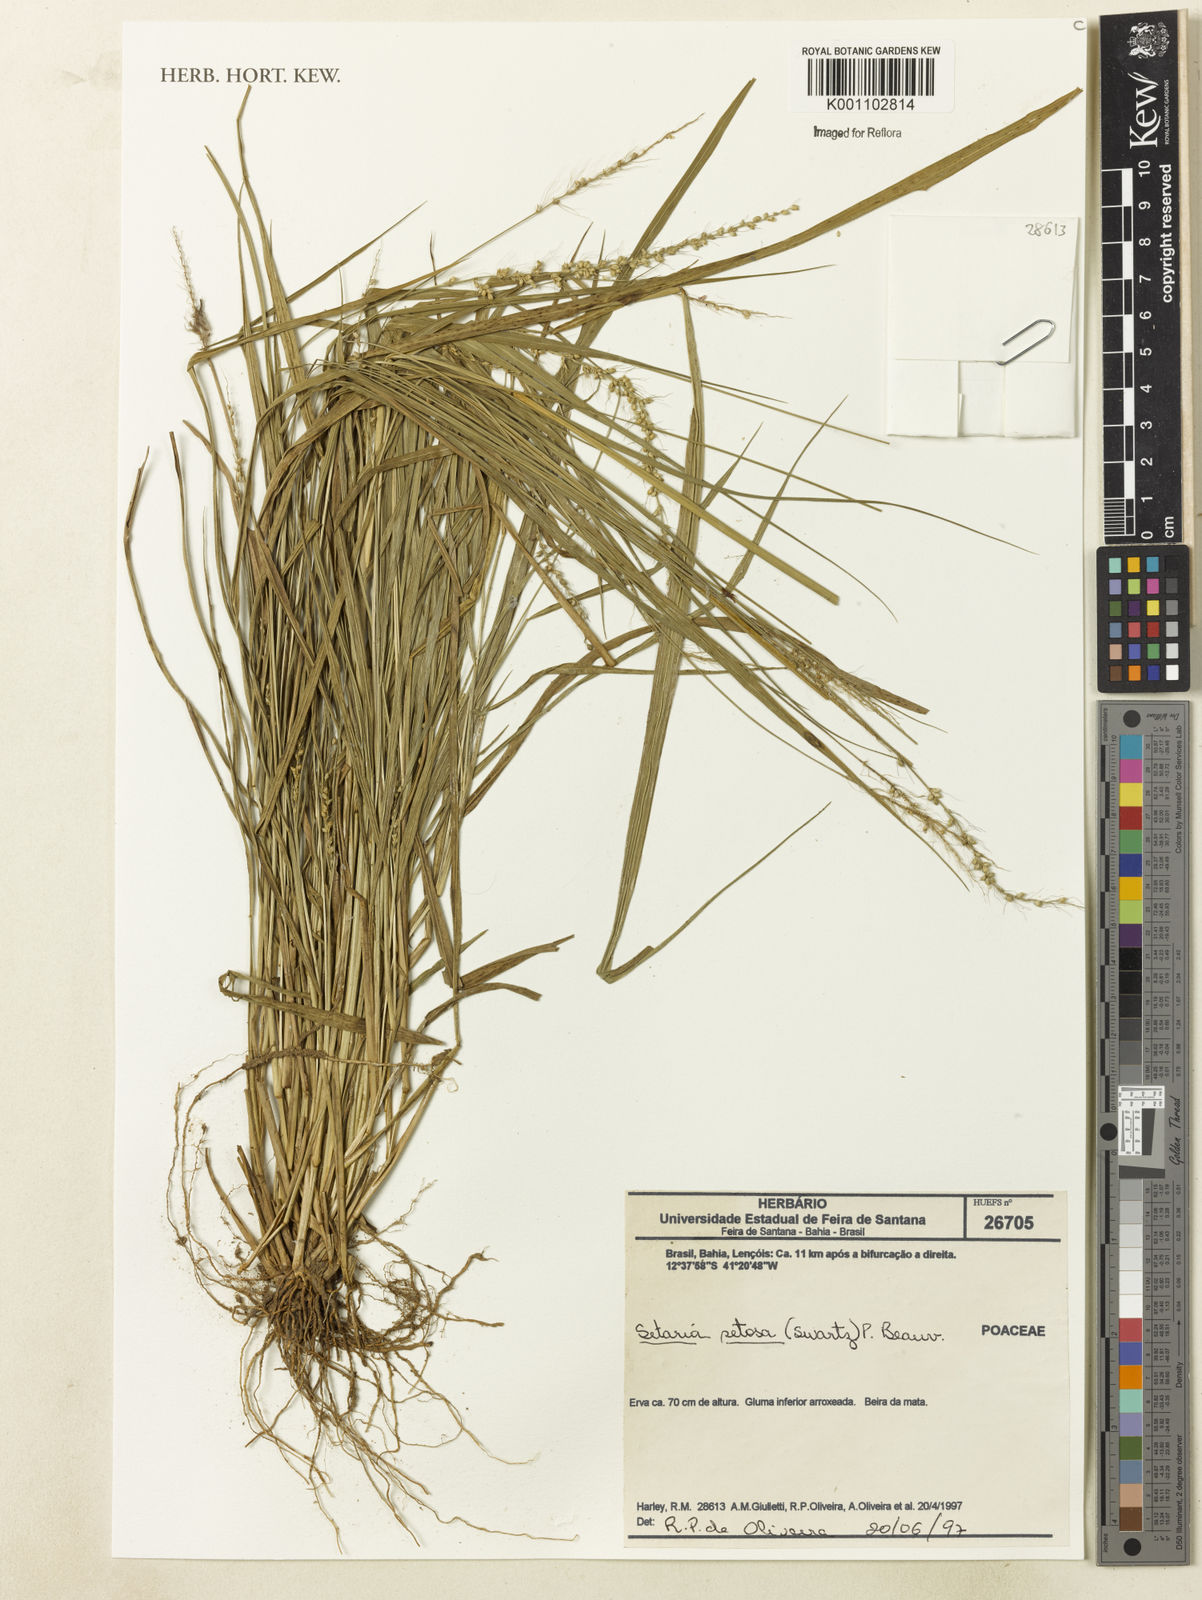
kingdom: Plantae
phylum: Tracheophyta
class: Liliopsida
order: Poales
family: Poaceae
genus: Setaria
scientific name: Setaria setosa
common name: West indies bristle grass
